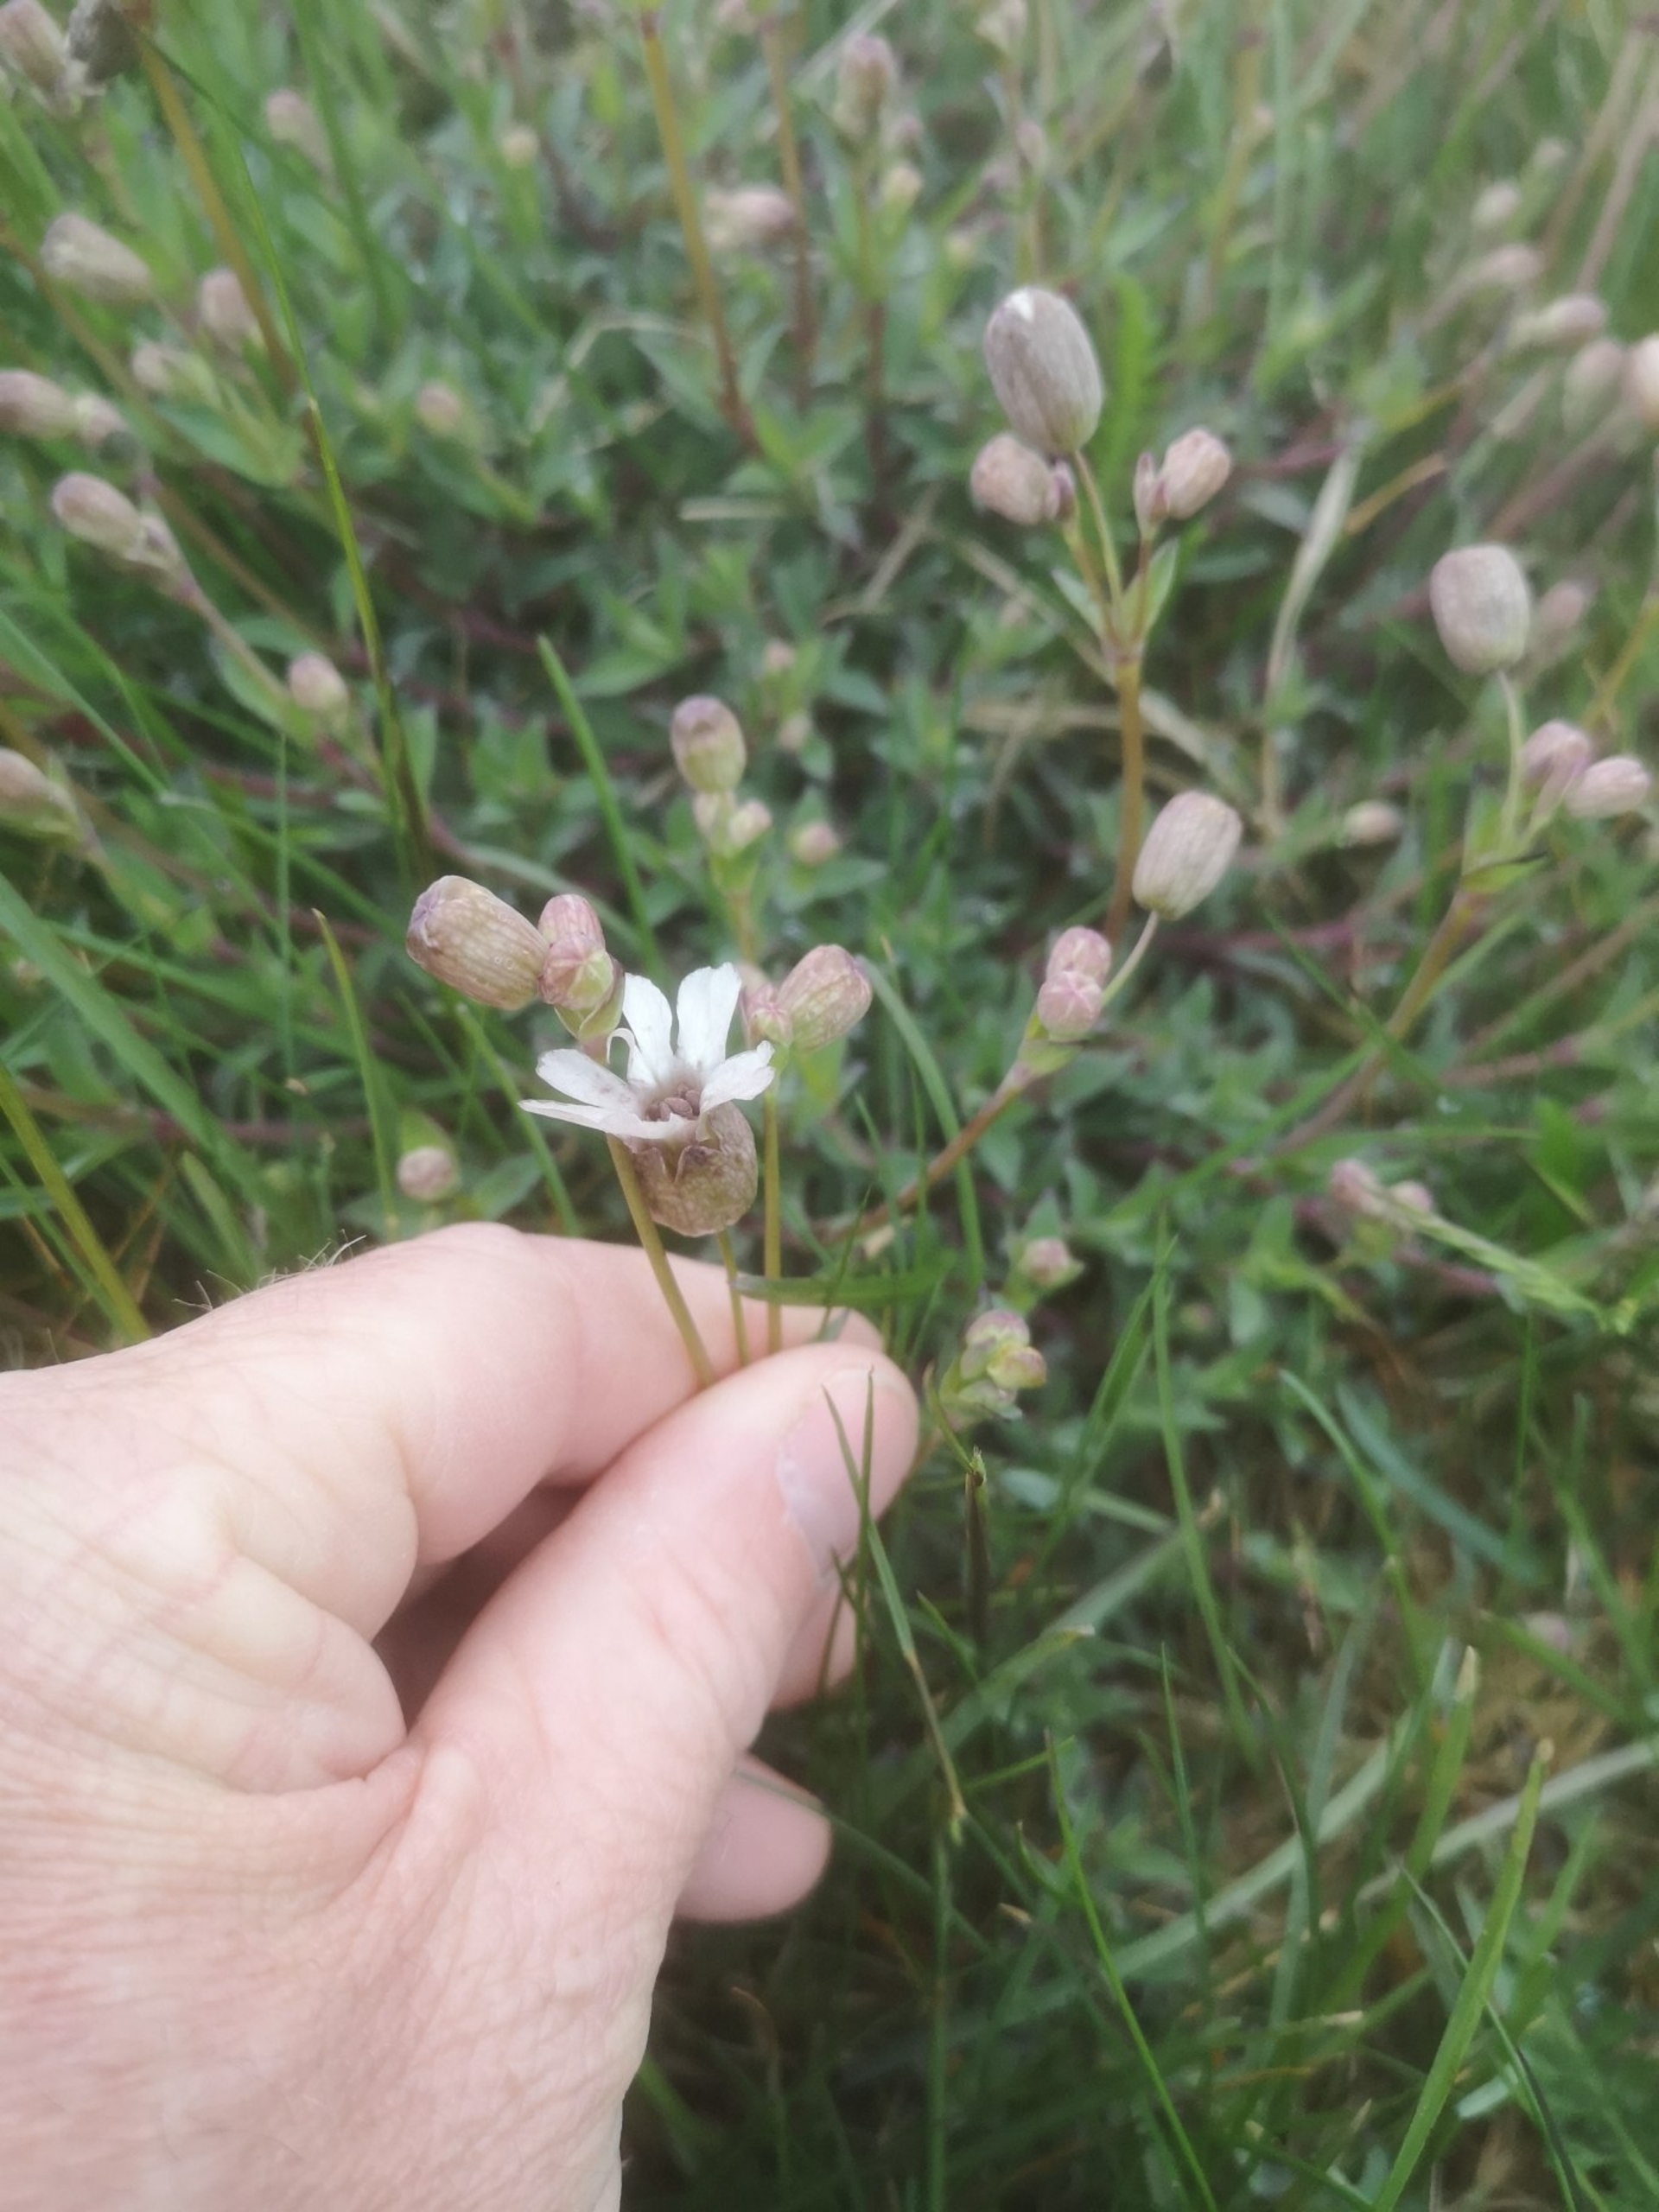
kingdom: Plantae
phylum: Tracheophyta
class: Magnoliopsida
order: Caryophyllales
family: Caryophyllaceae
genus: Silene
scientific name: Silene vulgaris
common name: Blæresmælde
